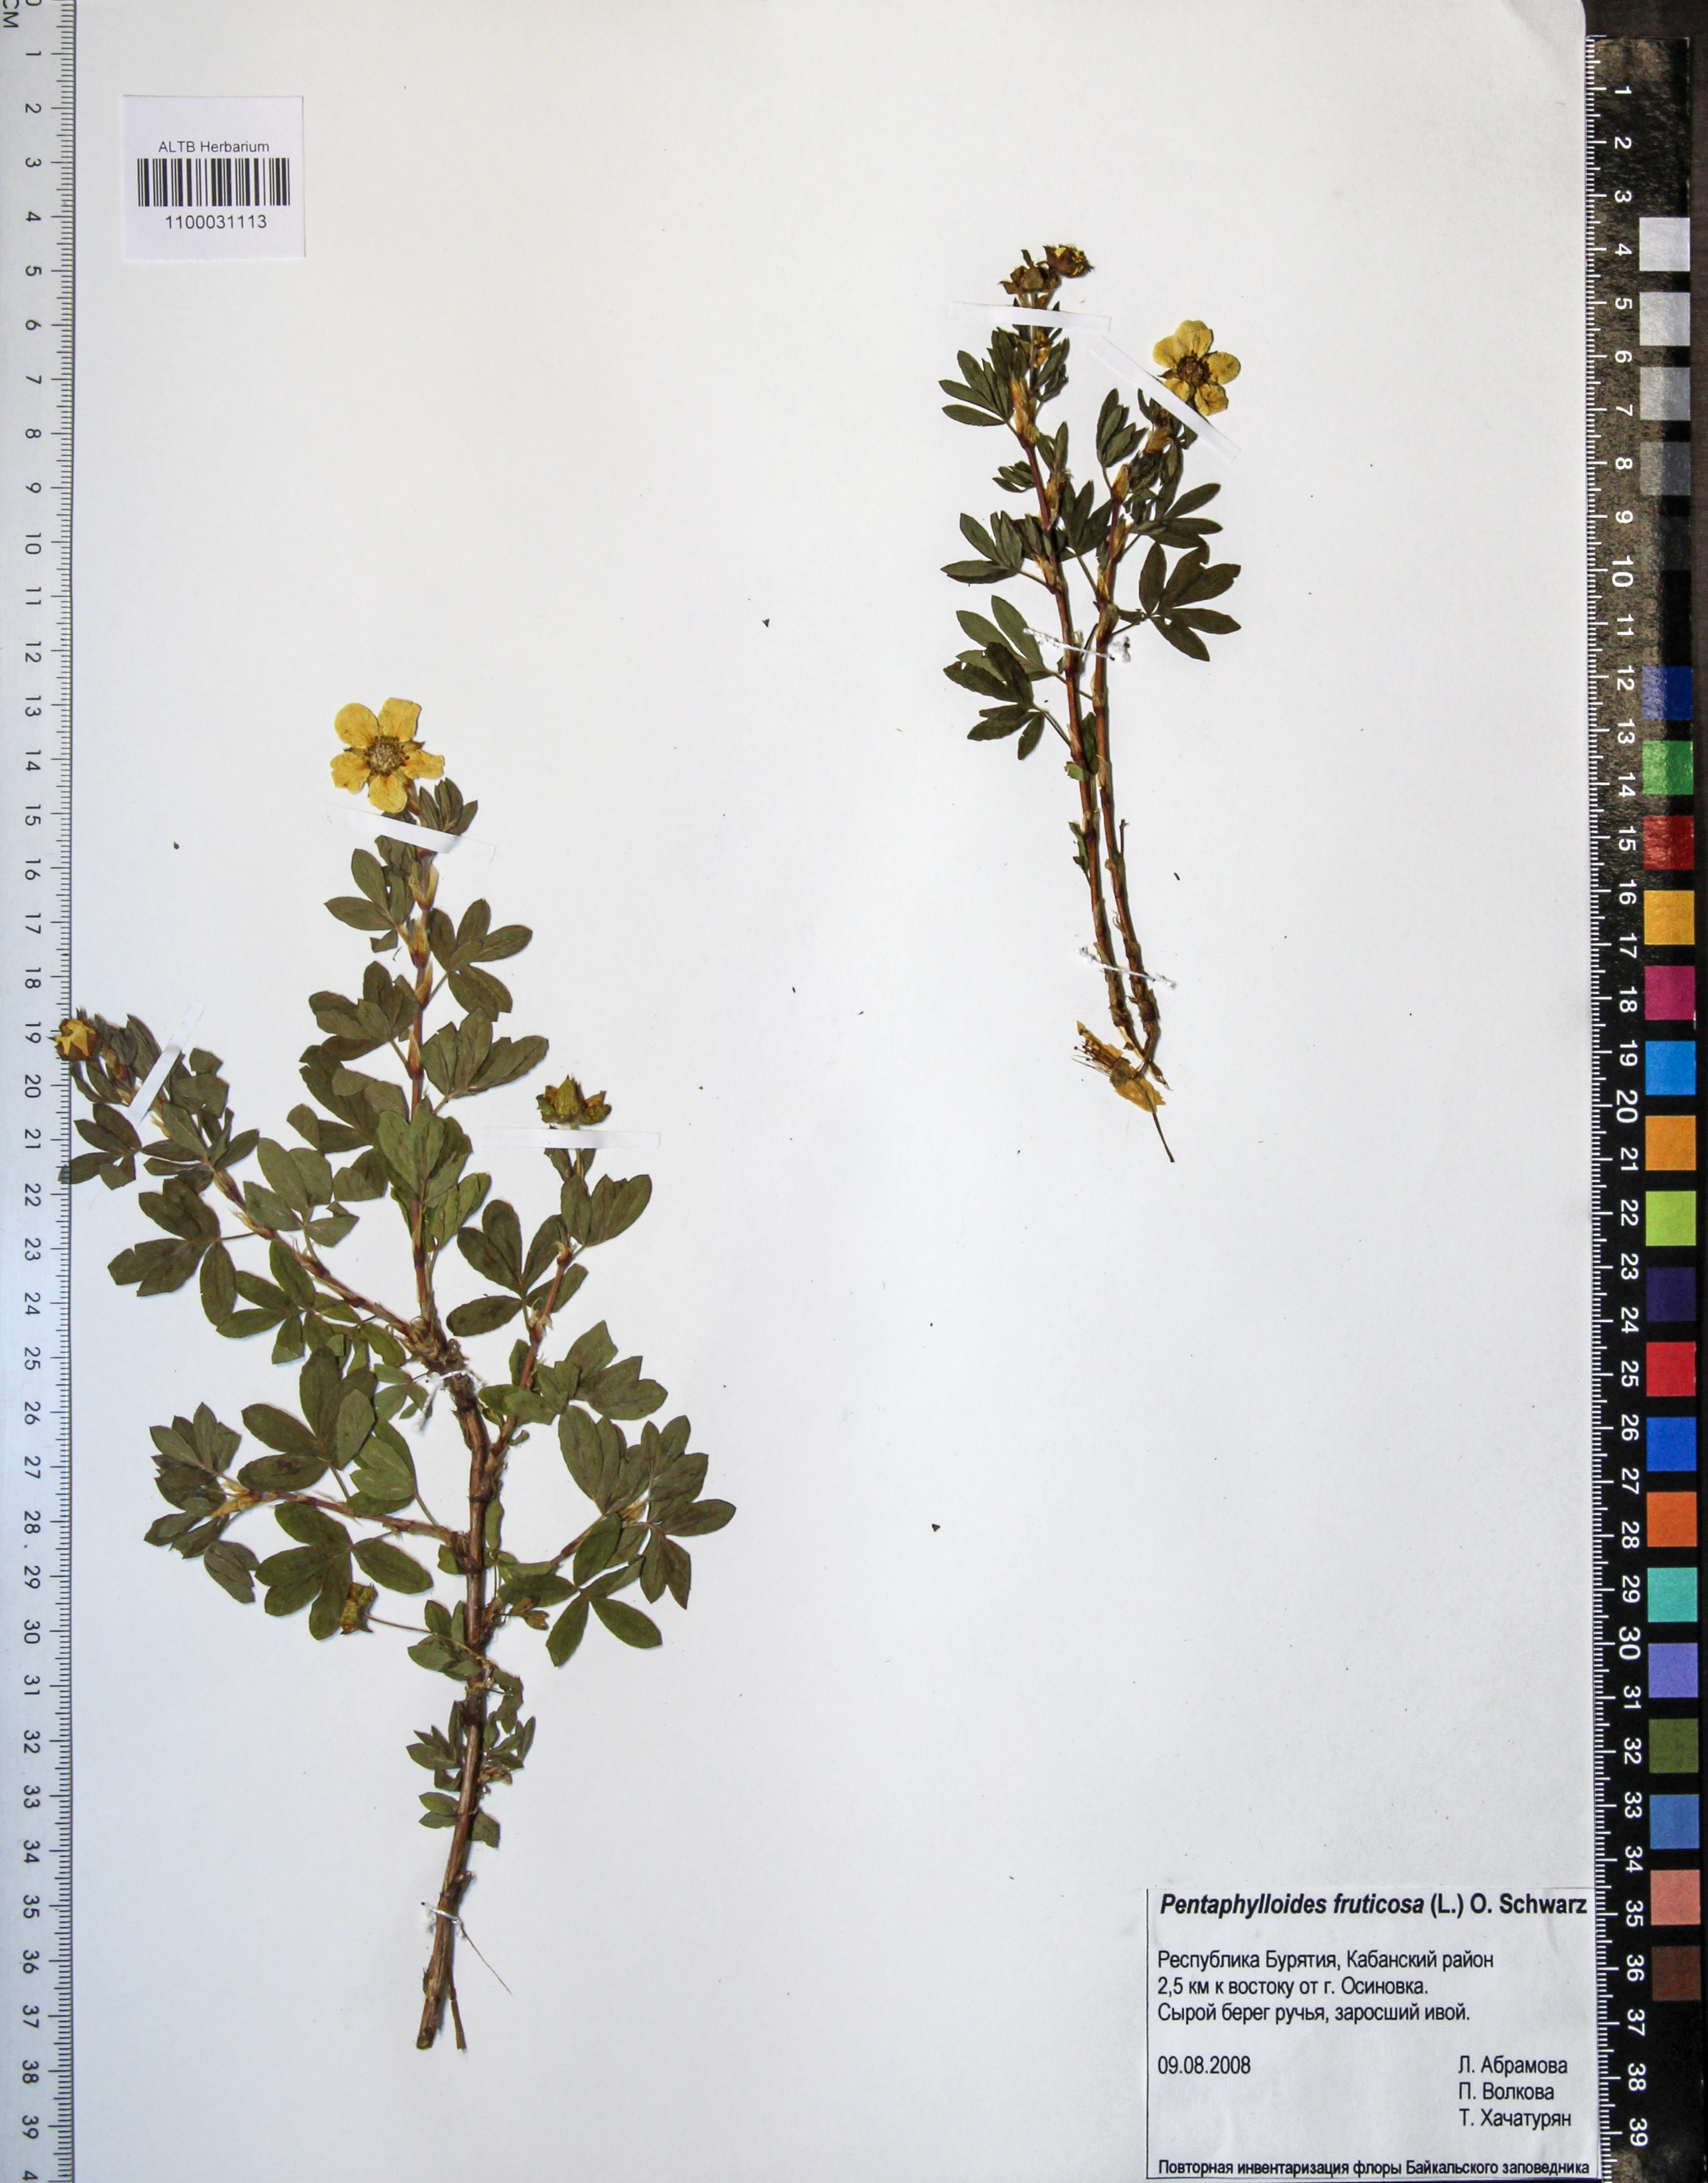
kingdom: Plantae
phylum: Tracheophyta
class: Magnoliopsida
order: Rosales
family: Rosaceae
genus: Dasiphora
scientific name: Dasiphora fruticosa
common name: Shrubby cinquefoil
